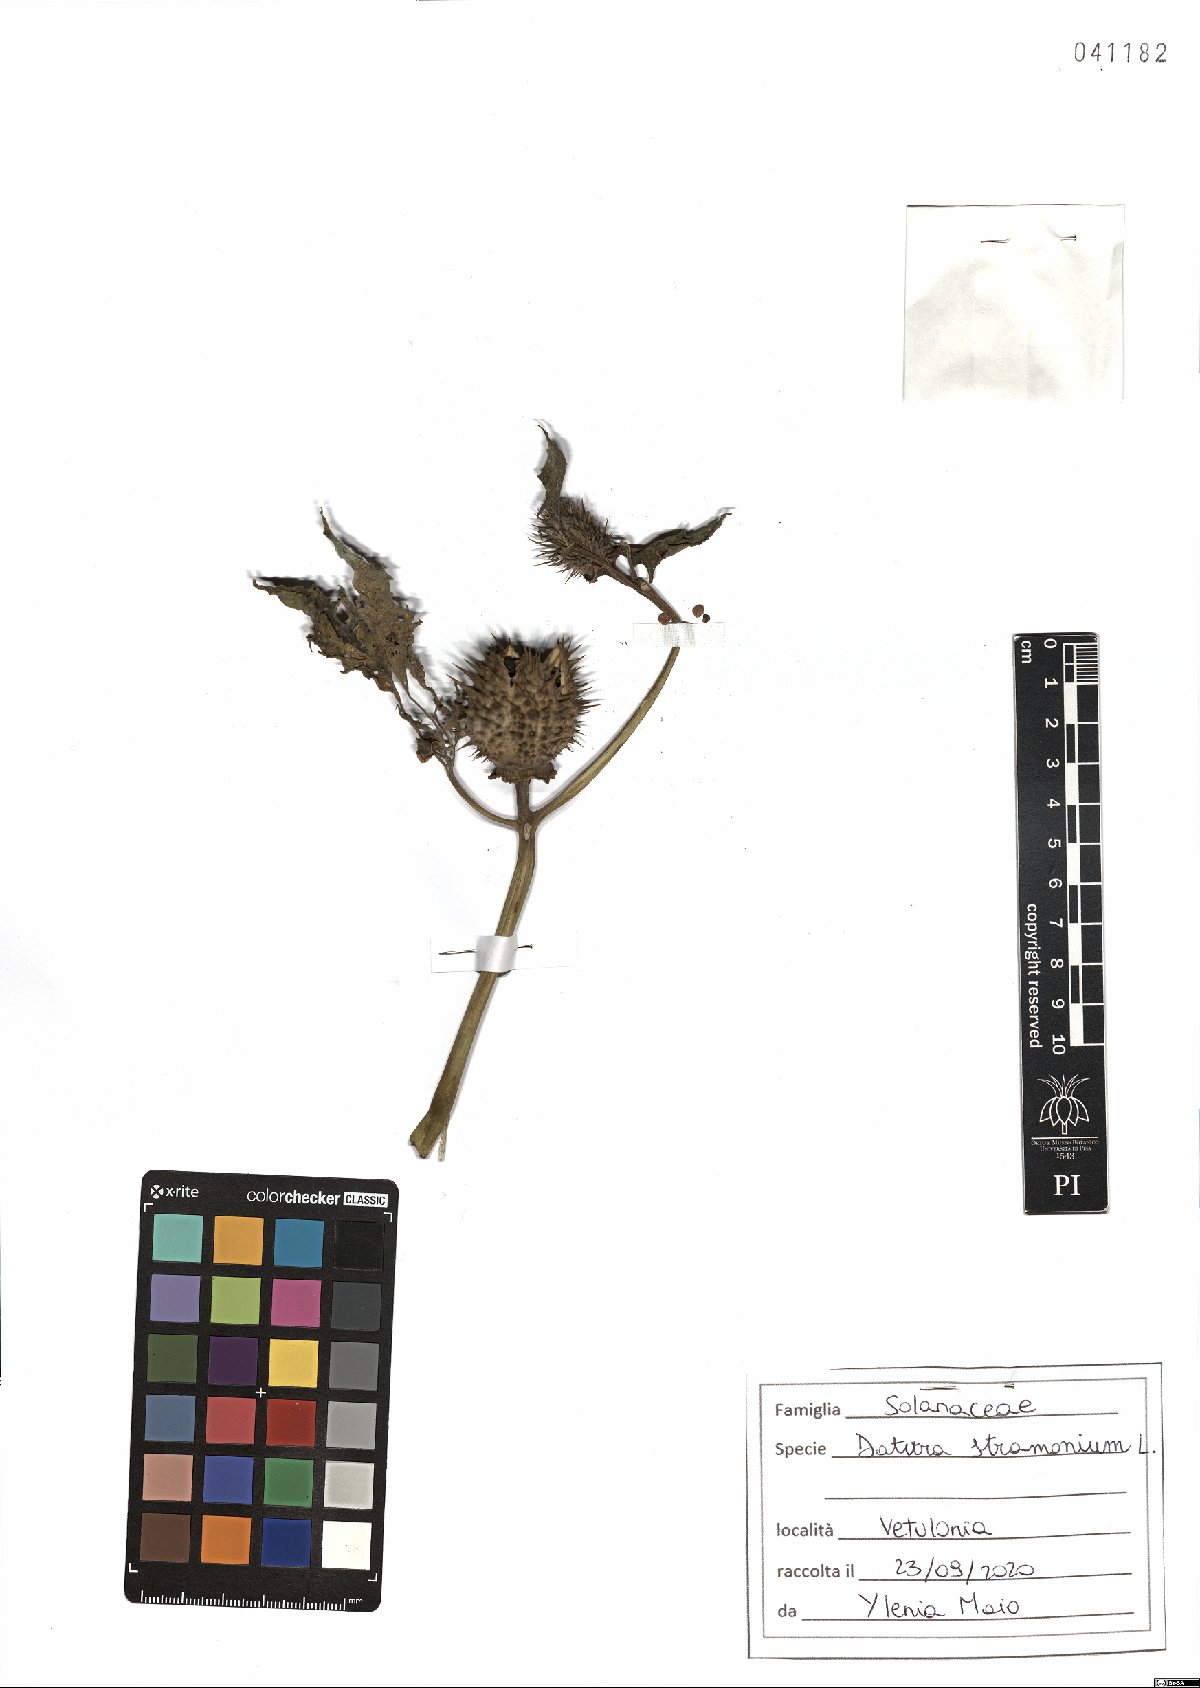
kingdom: Plantae
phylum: Tracheophyta
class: Magnoliopsida
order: Solanales
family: Solanaceae
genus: Datura
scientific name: Datura stramonium
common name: Thorn-apple
